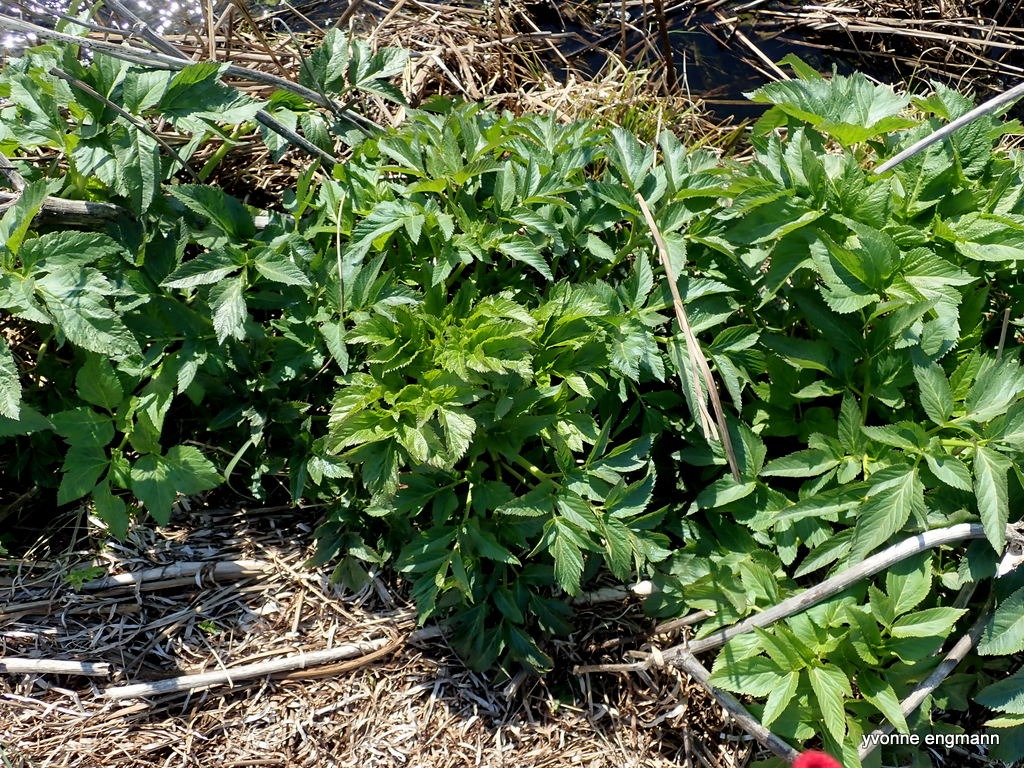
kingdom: Plantae
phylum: Tracheophyta
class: Magnoliopsida
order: Apiales
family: Apiaceae
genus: Angelica
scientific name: Angelica archangelica
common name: Kvan
